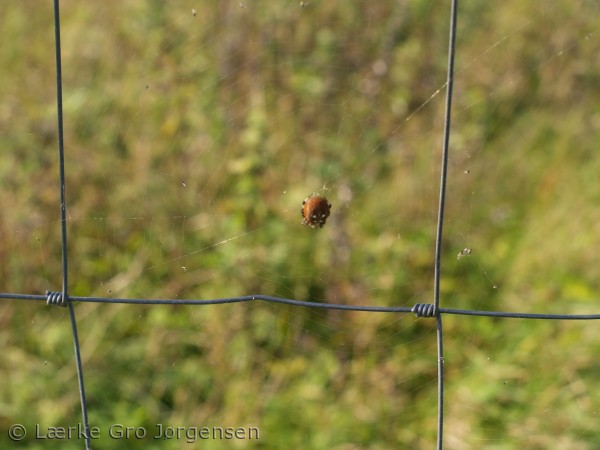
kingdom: Animalia
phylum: Arthropoda
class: Arachnida
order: Araneae
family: Araneidae
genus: Araneus
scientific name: Araneus quadratus
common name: Kvadratedderkop
